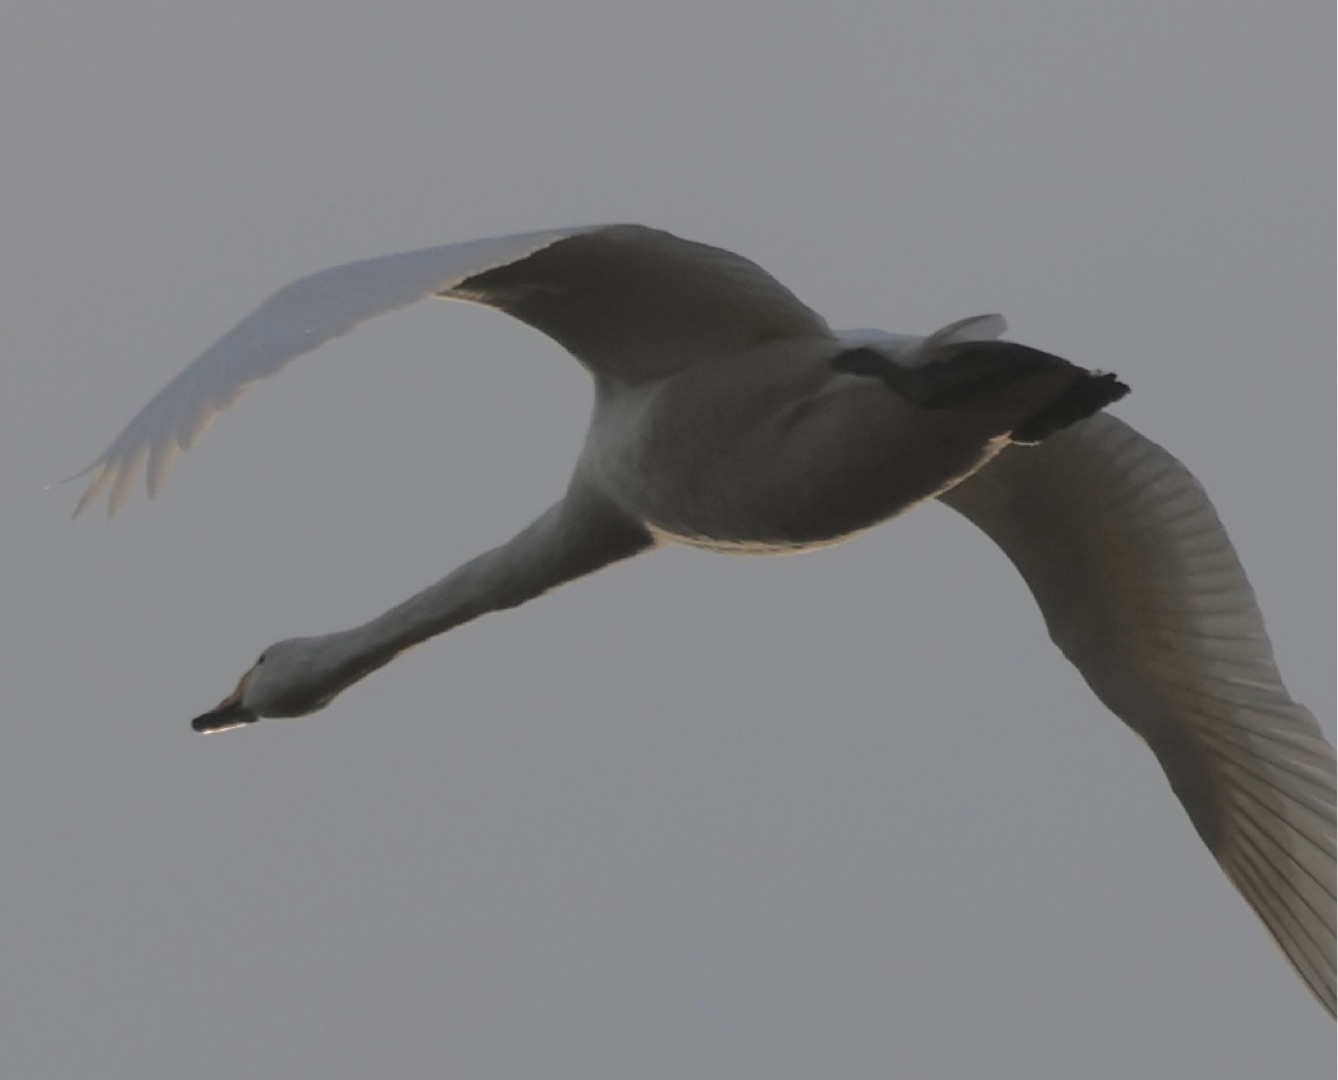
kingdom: Animalia
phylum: Chordata
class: Aves
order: Anseriformes
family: Anatidae
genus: Cygnus
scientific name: Cygnus cygnus
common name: Sangsvane
